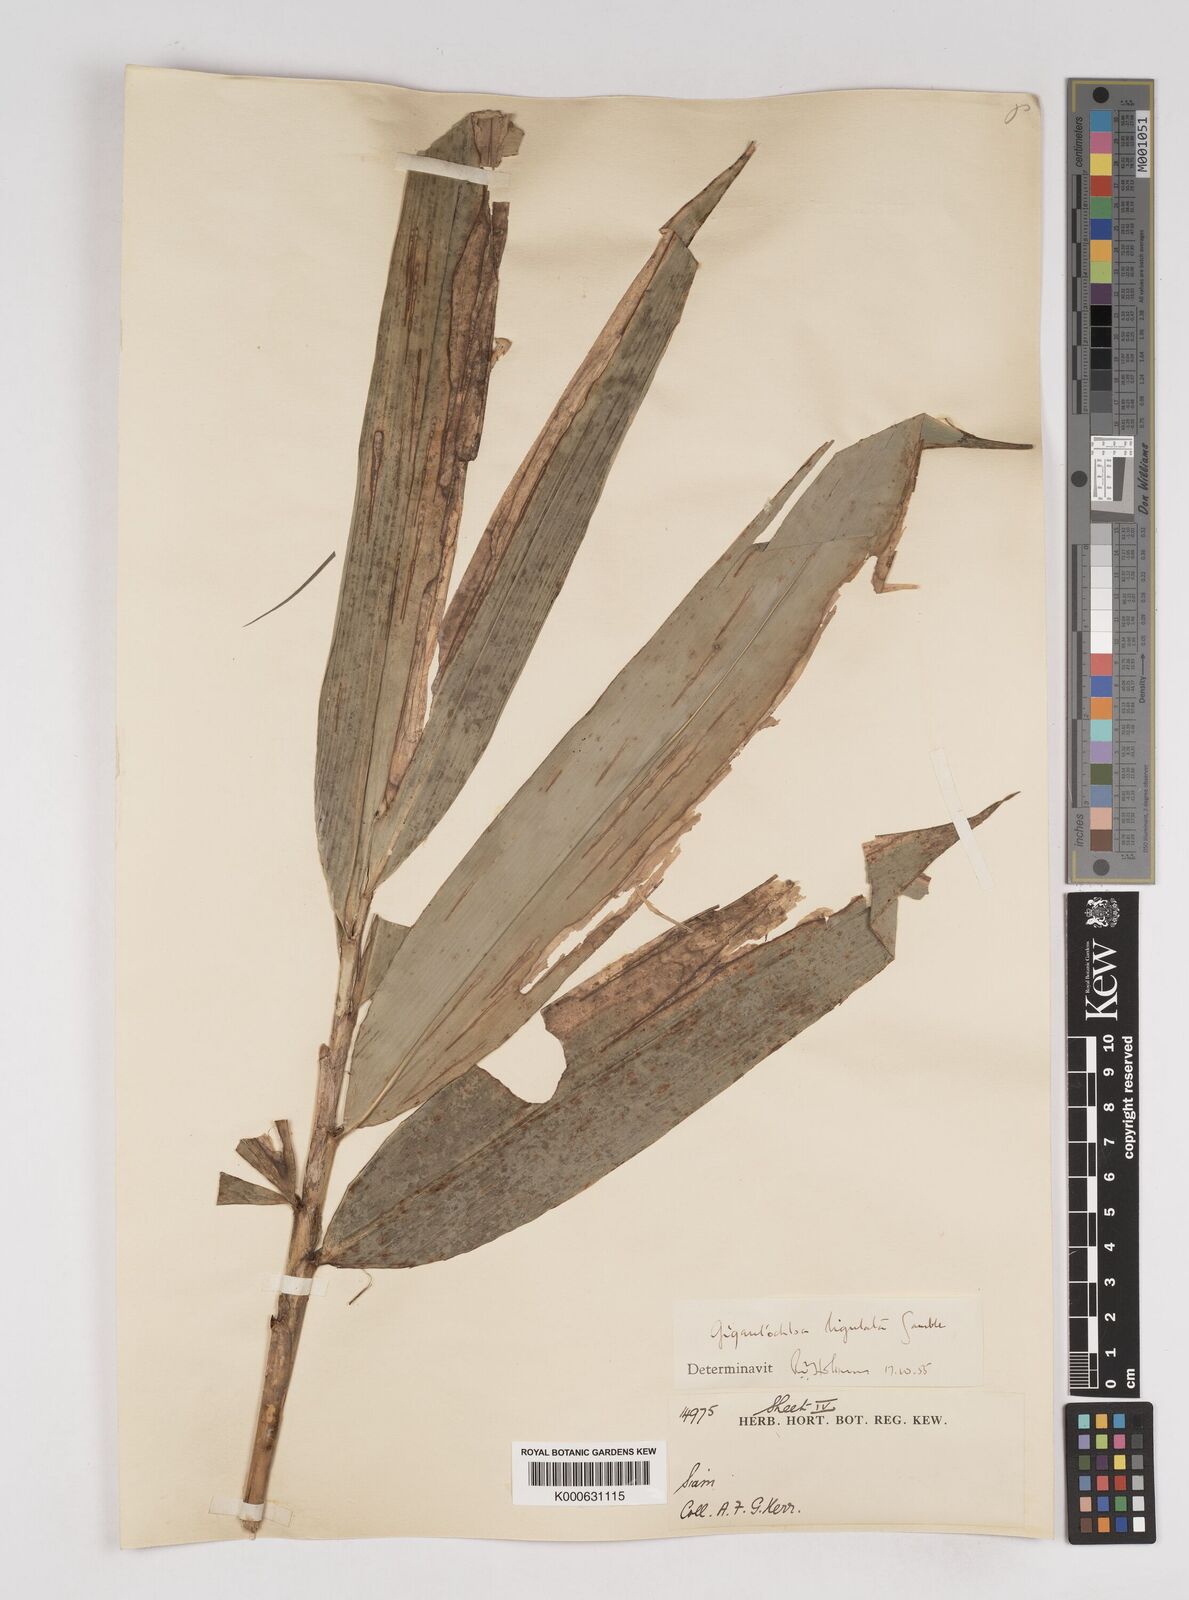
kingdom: Plantae
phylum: Tracheophyta
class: Liliopsida
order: Poales
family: Poaceae
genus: Gigantochloa
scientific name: Gigantochloa ligulata
